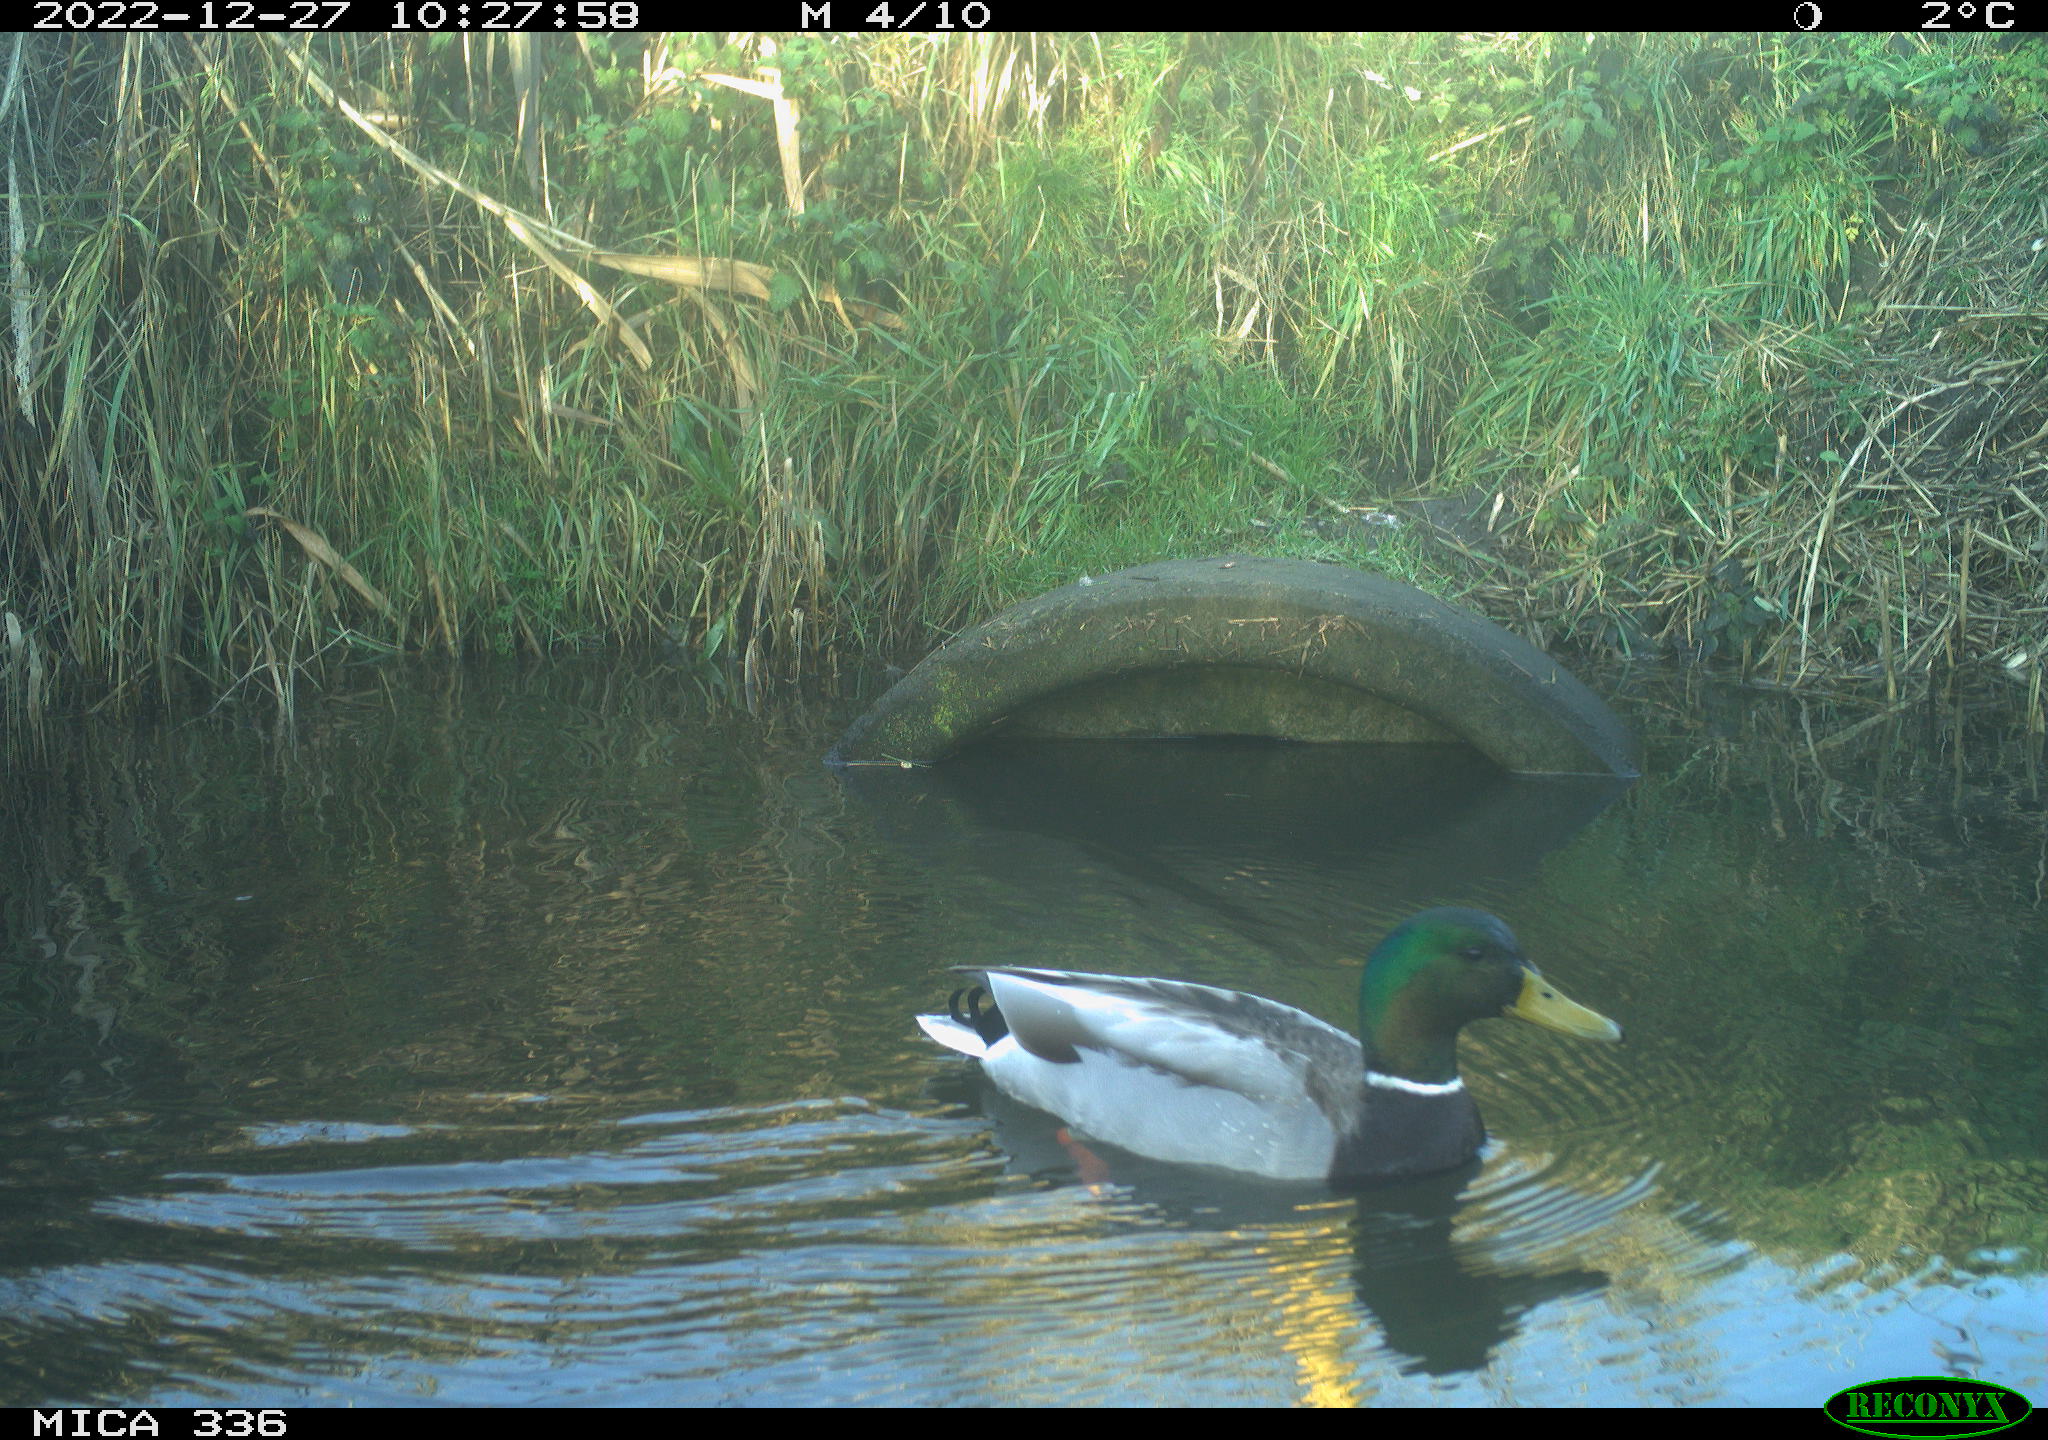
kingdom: Animalia
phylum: Chordata
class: Aves
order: Anseriformes
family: Anatidae
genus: Anas
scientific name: Anas
